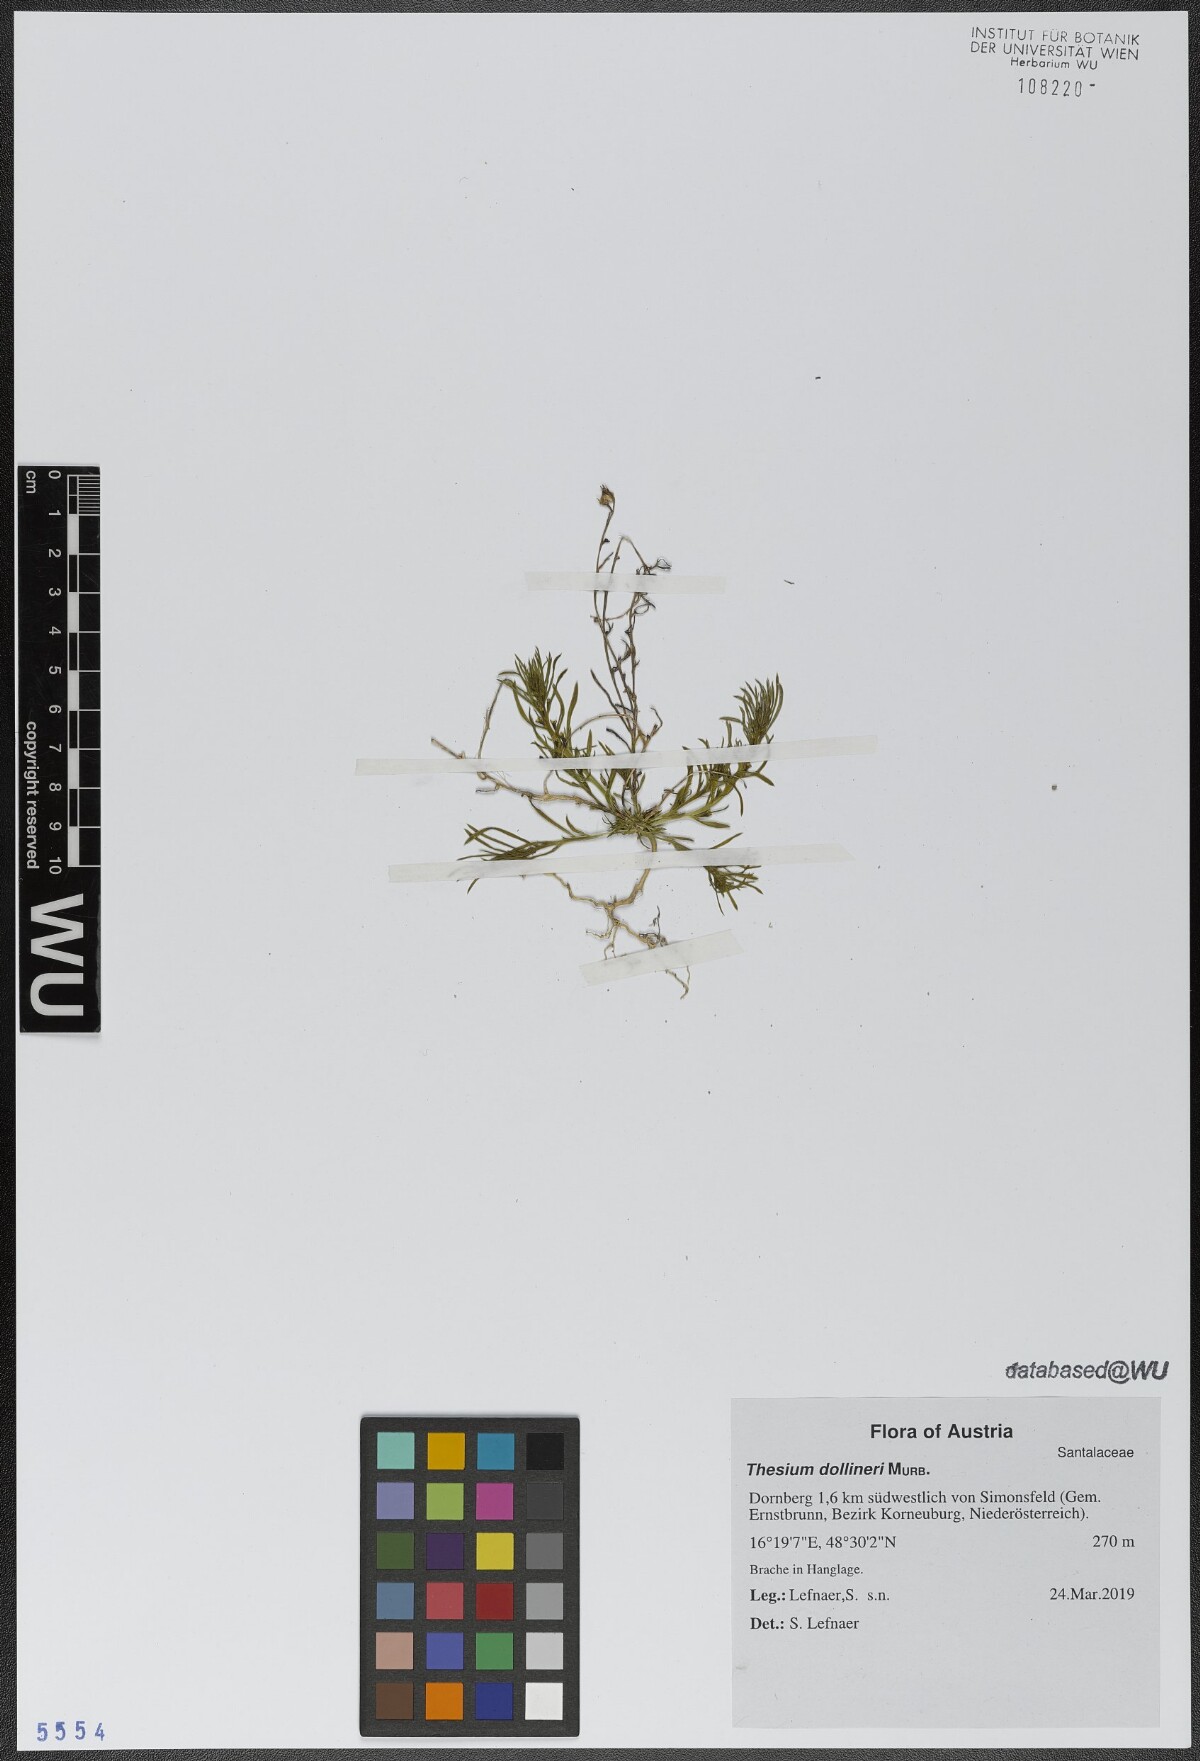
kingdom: Plantae
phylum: Tracheophyta
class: Magnoliopsida
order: Santalales
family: Thesiaceae
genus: Thesium
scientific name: Thesium dollineri
